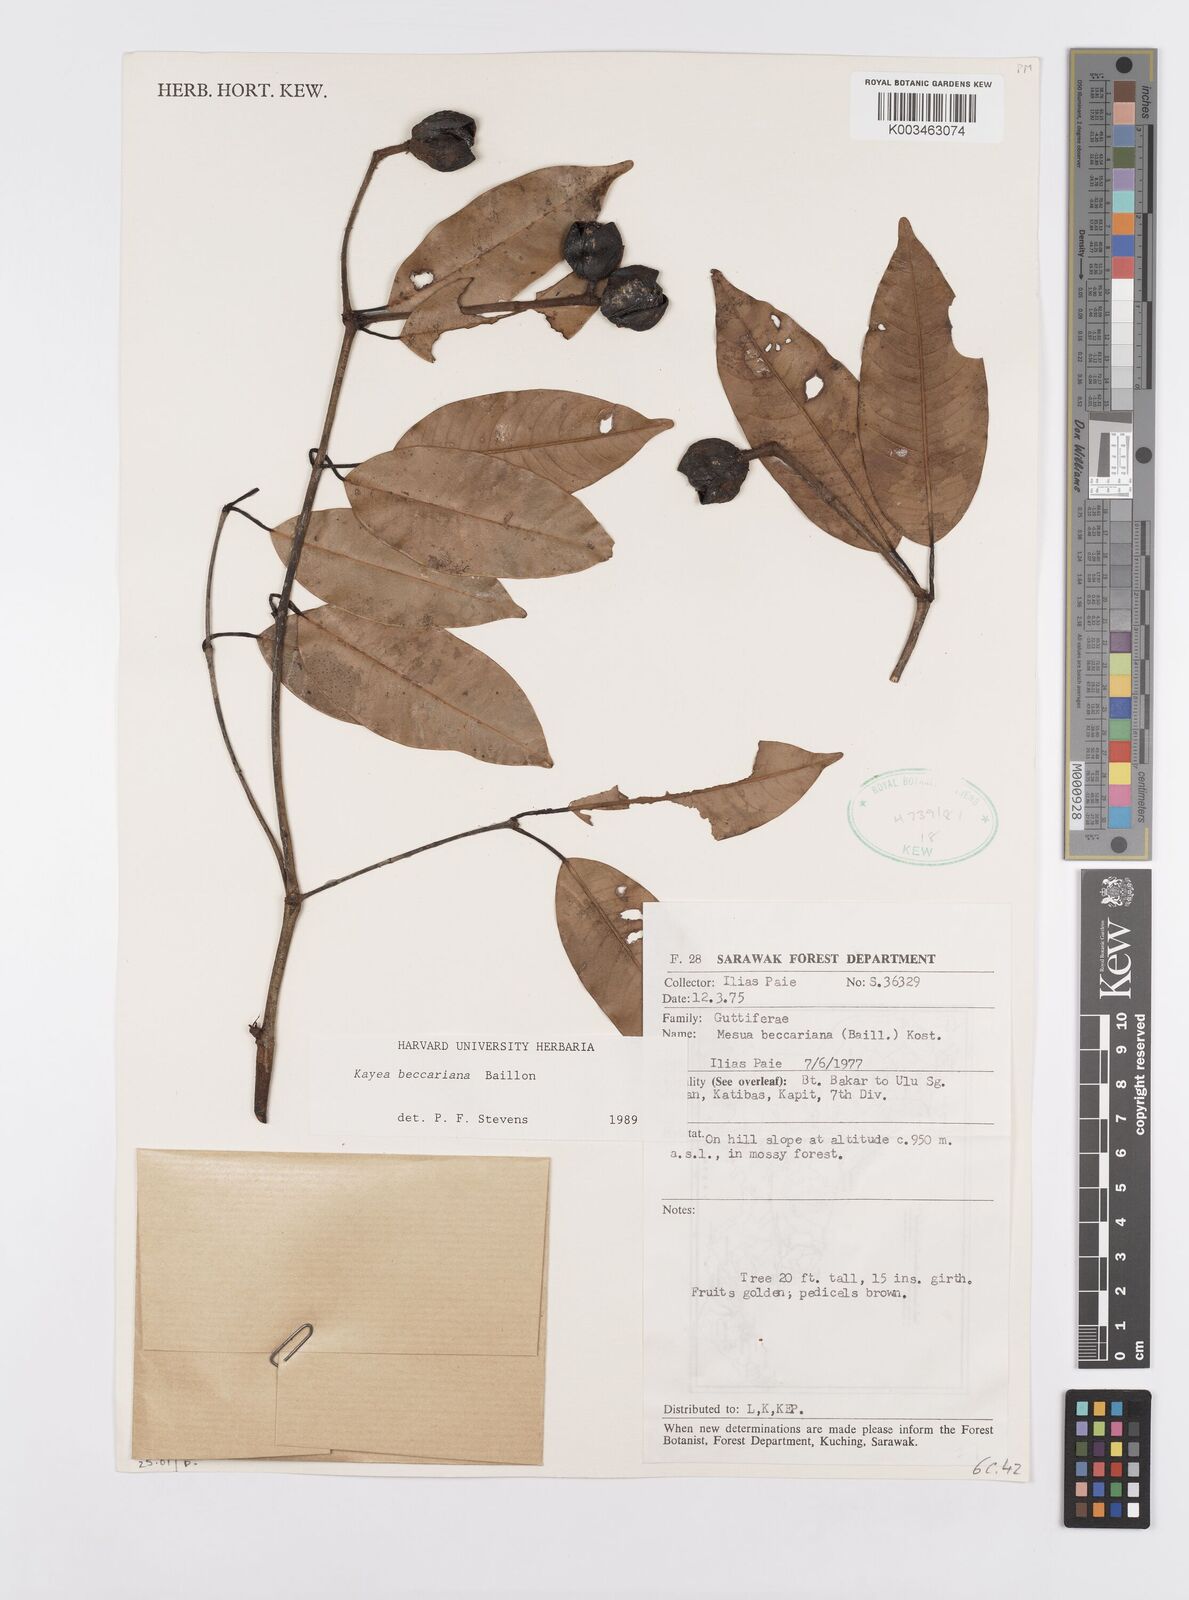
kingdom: Plantae
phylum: Tracheophyta
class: Magnoliopsida
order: Malpighiales
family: Calophyllaceae
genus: Kayea
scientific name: Kayea beccariana
